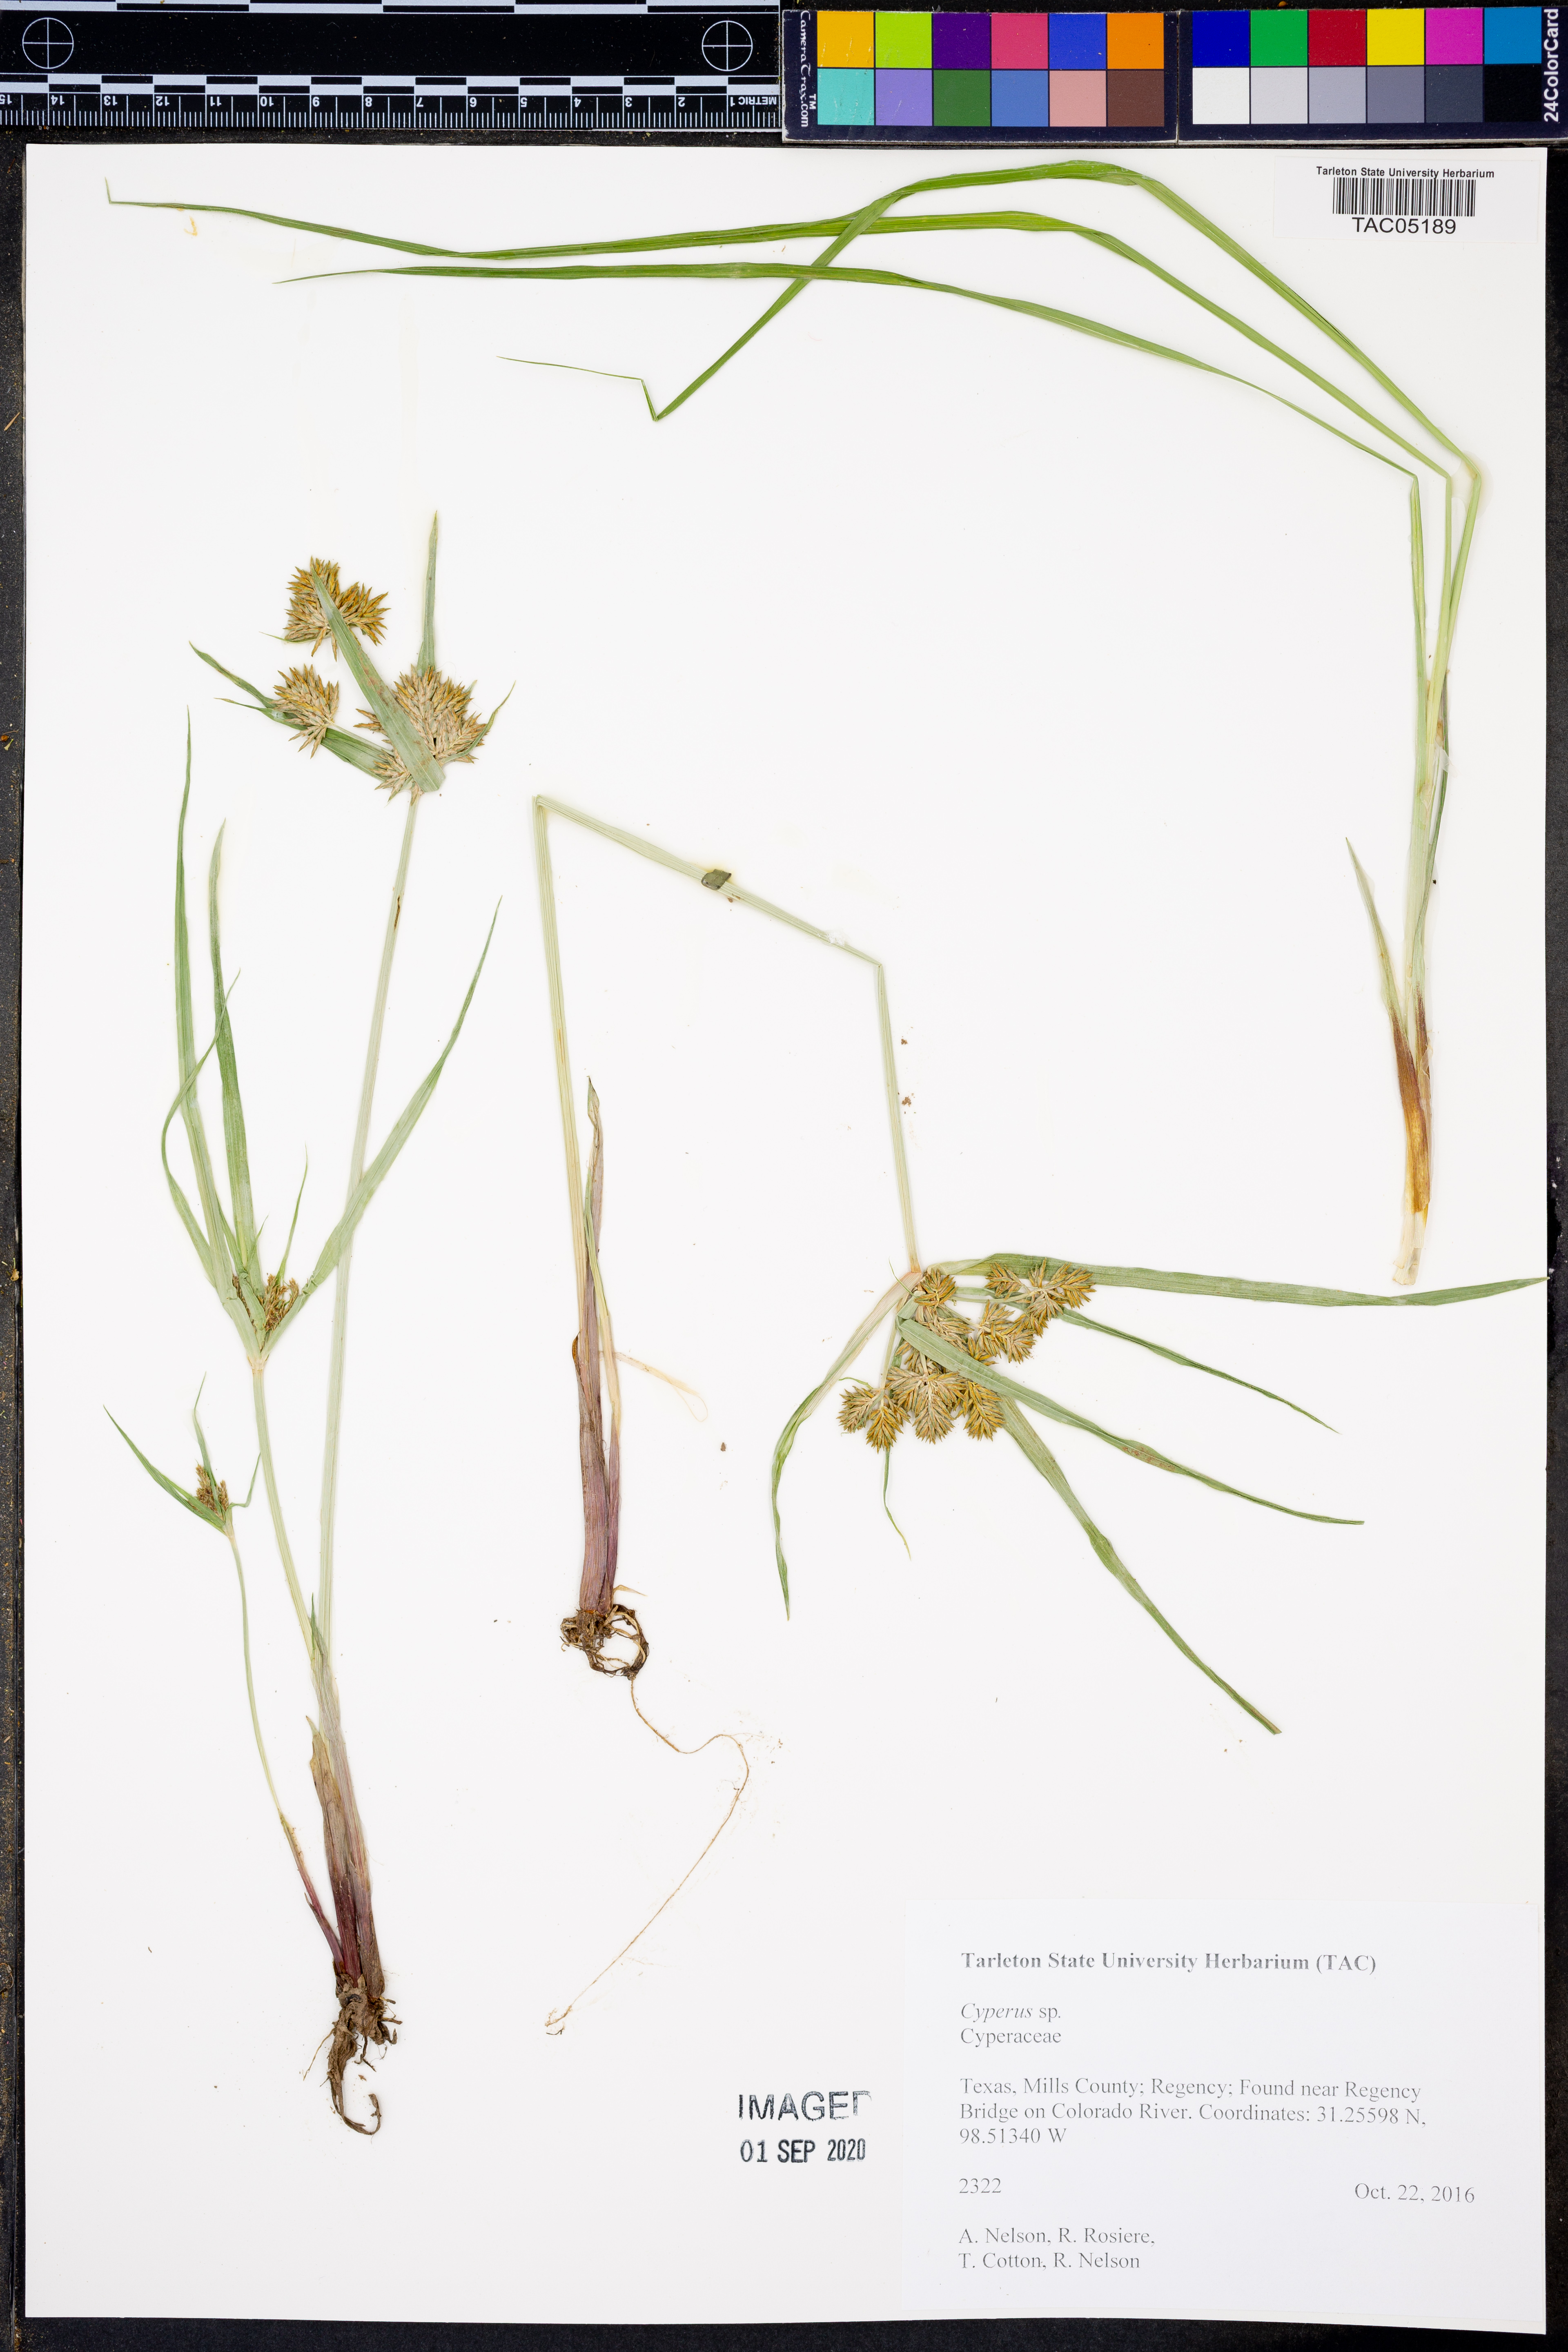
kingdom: Plantae
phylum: Tracheophyta
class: Liliopsida
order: Poales
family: Cyperaceae
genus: Cyperus
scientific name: Cyperus
